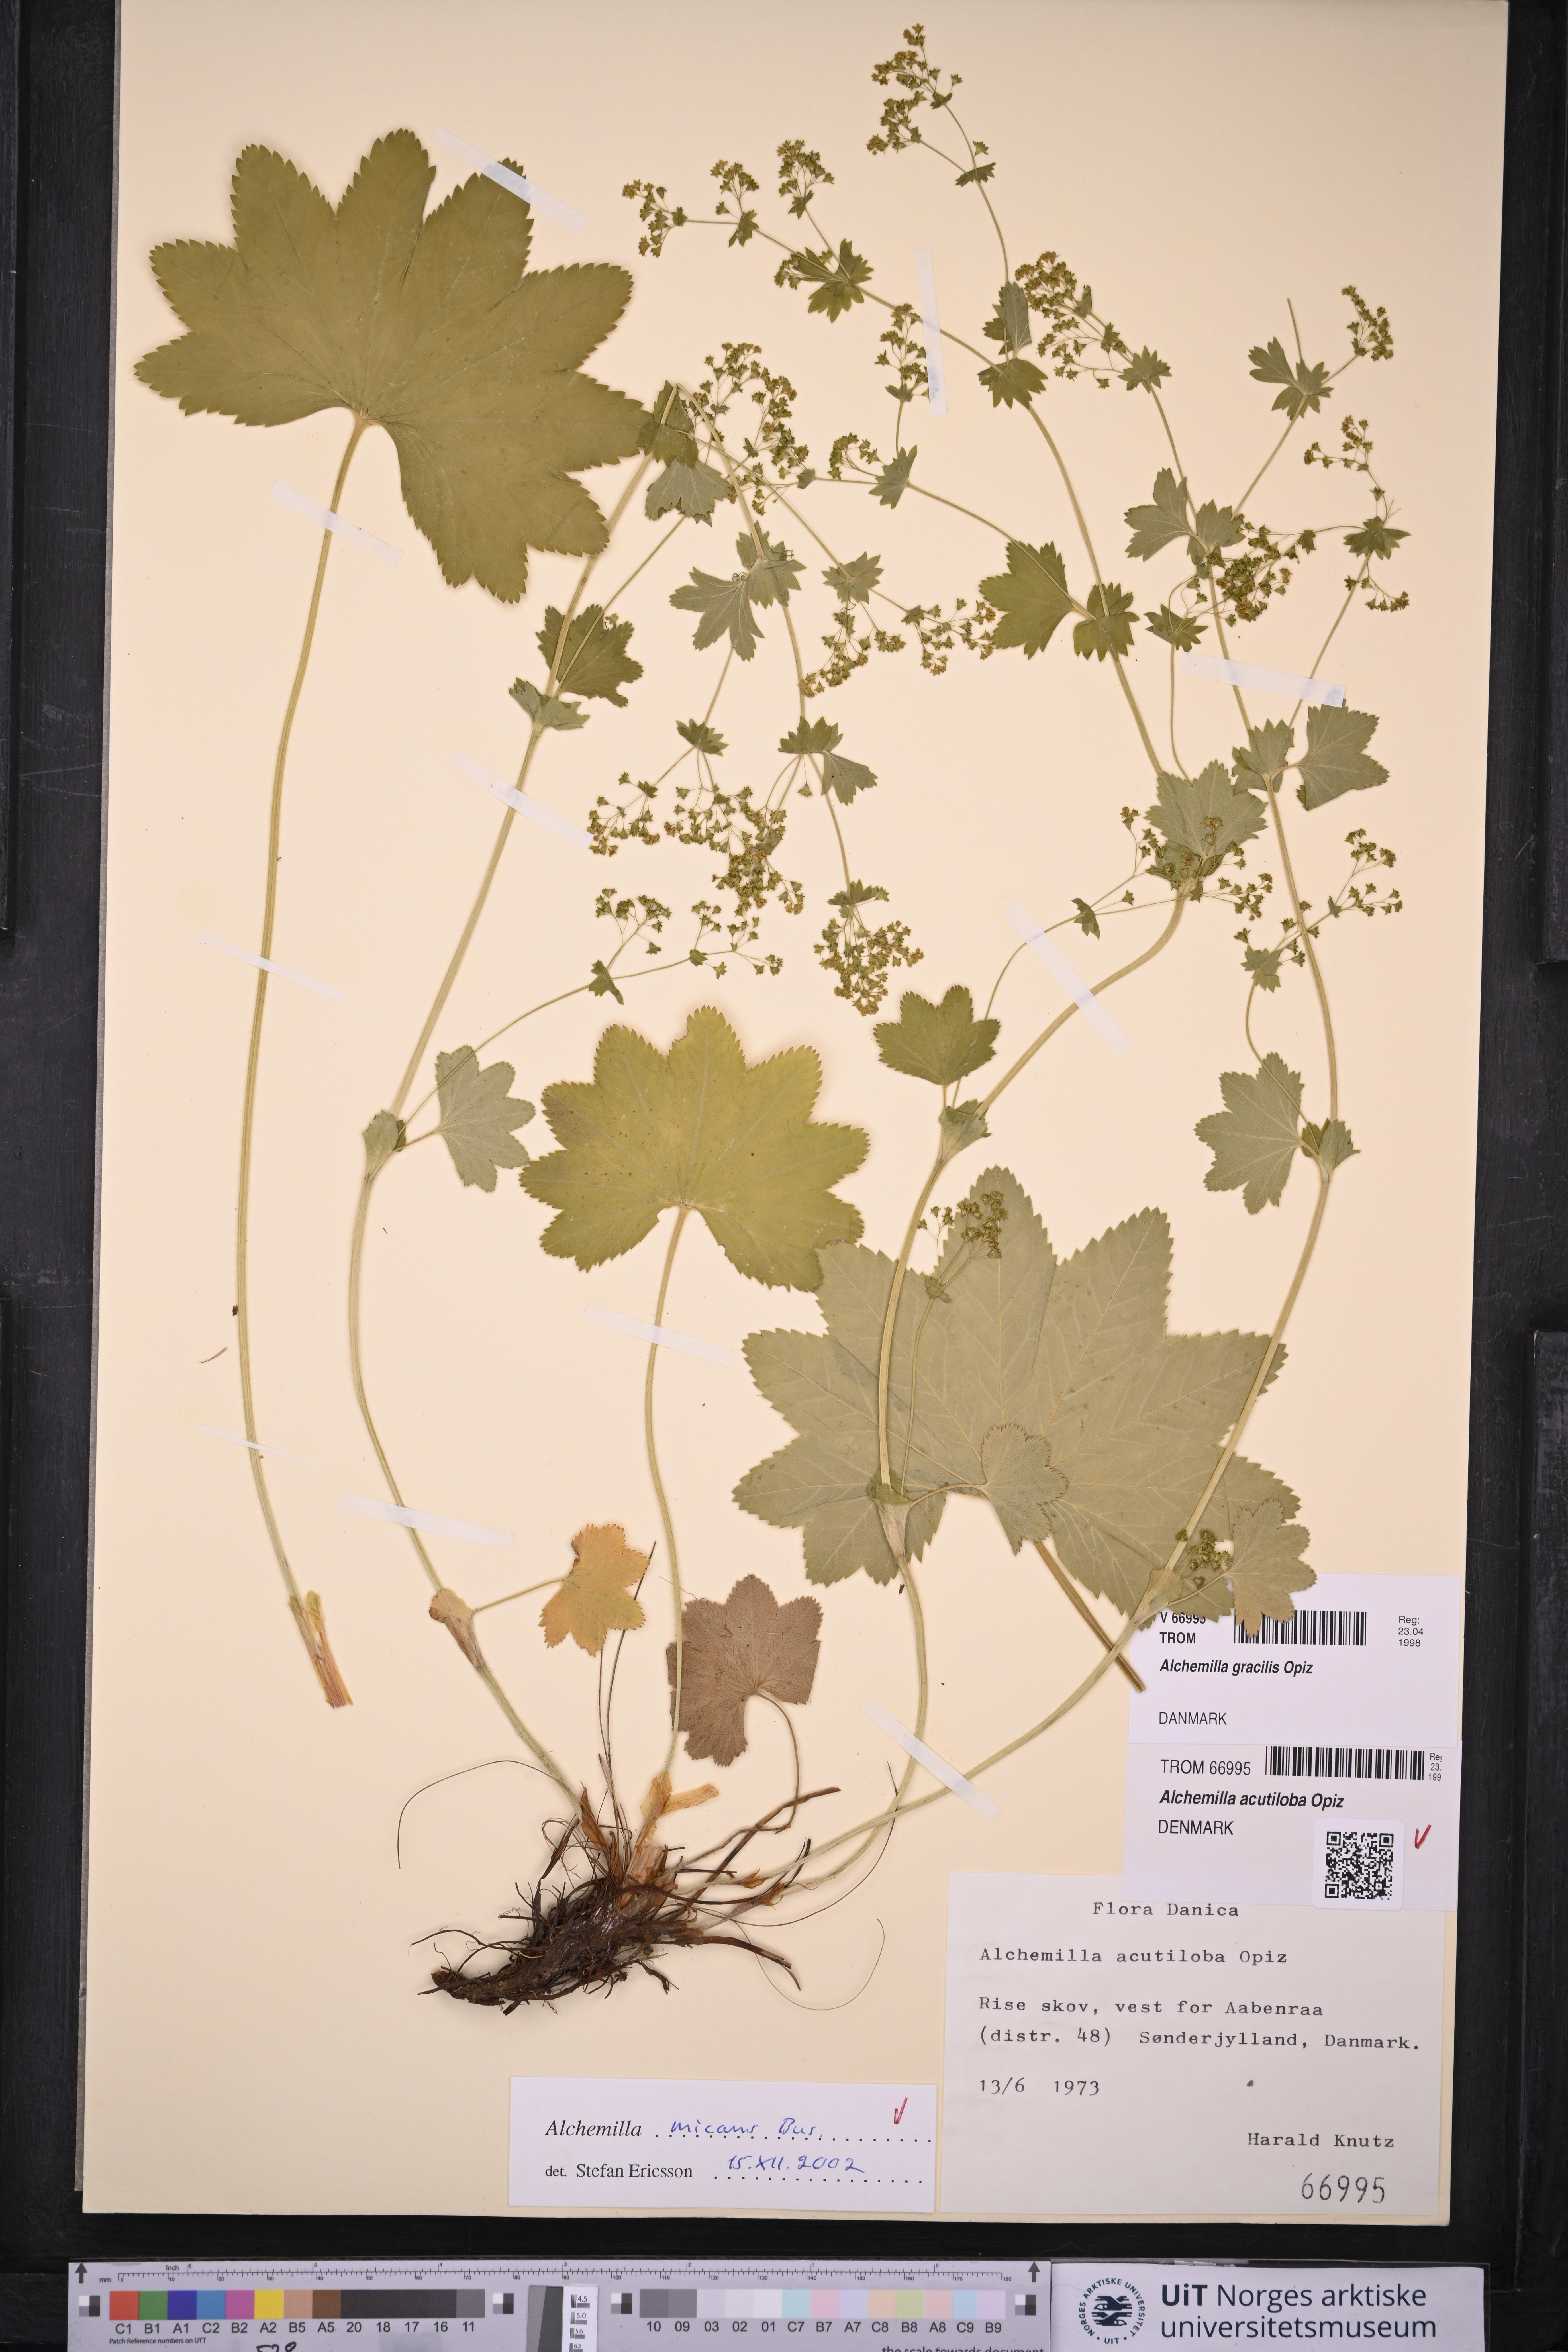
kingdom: Plantae
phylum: Tracheophyta
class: Magnoliopsida
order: Rosales
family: Rosaceae
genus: Alchemilla
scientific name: Alchemilla micans
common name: Gleaming lady's mantle
